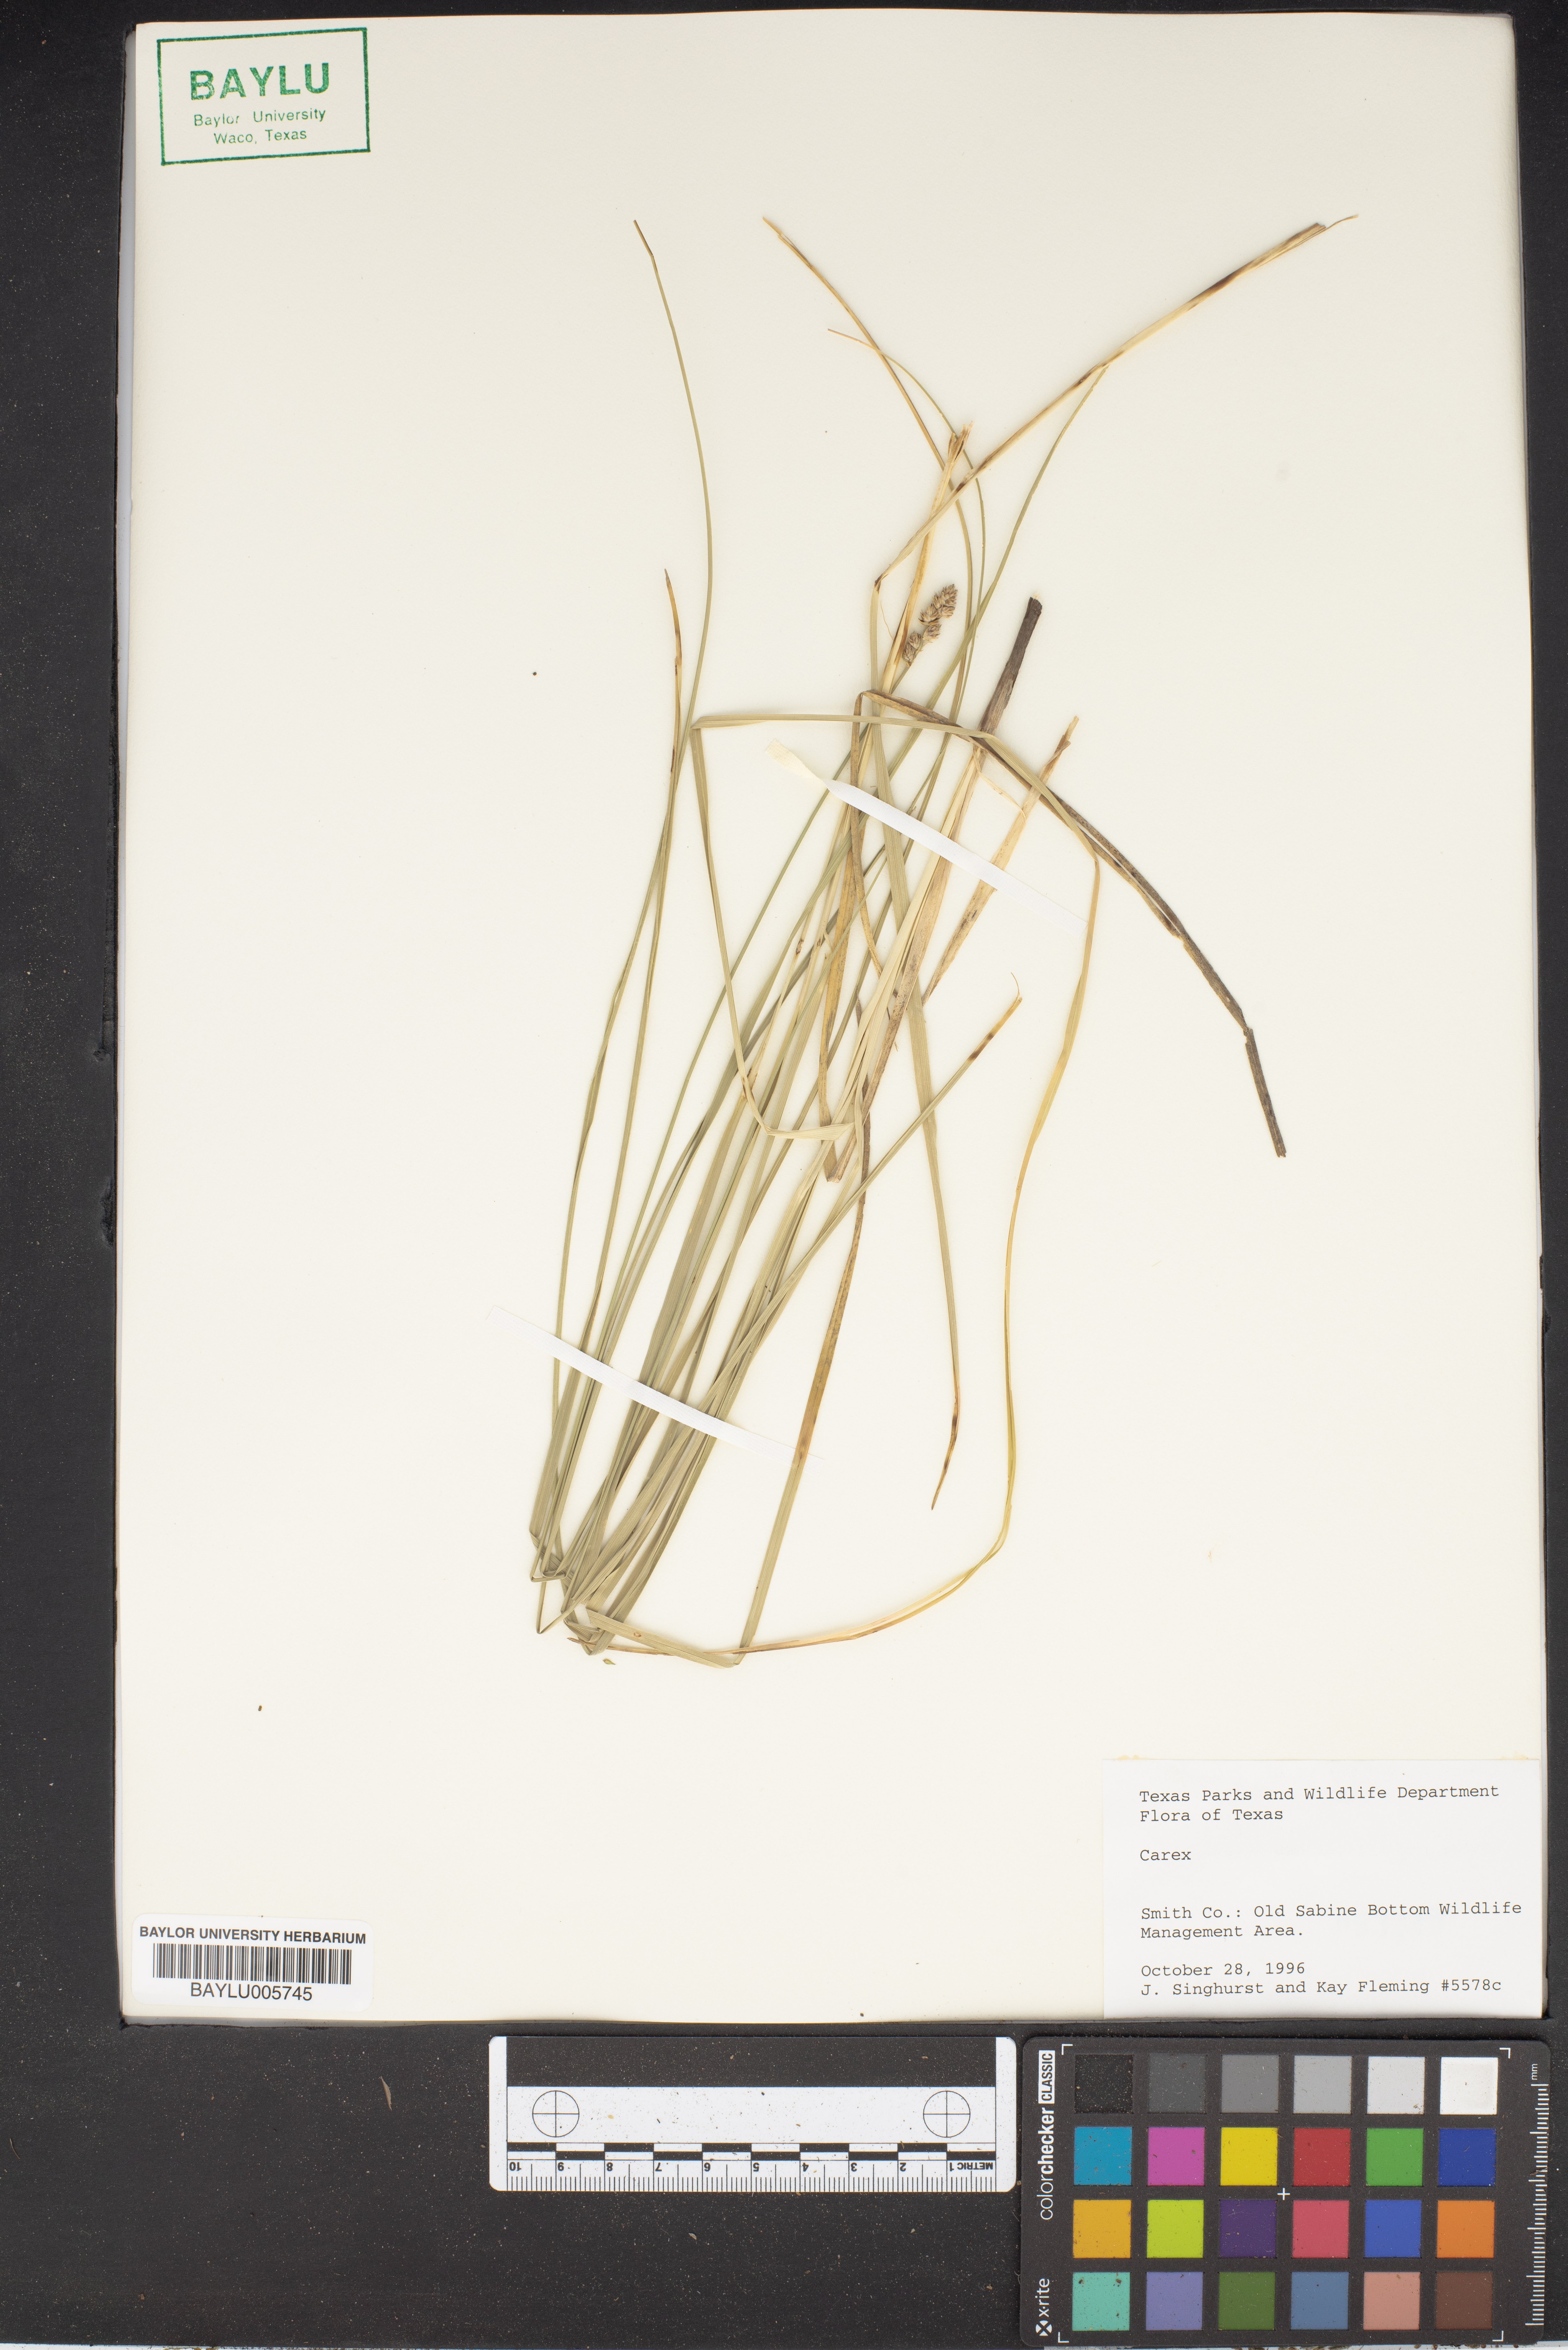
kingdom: Plantae
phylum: Tracheophyta
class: Liliopsida
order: Poales
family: Cyperaceae
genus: Carex
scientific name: Carex
